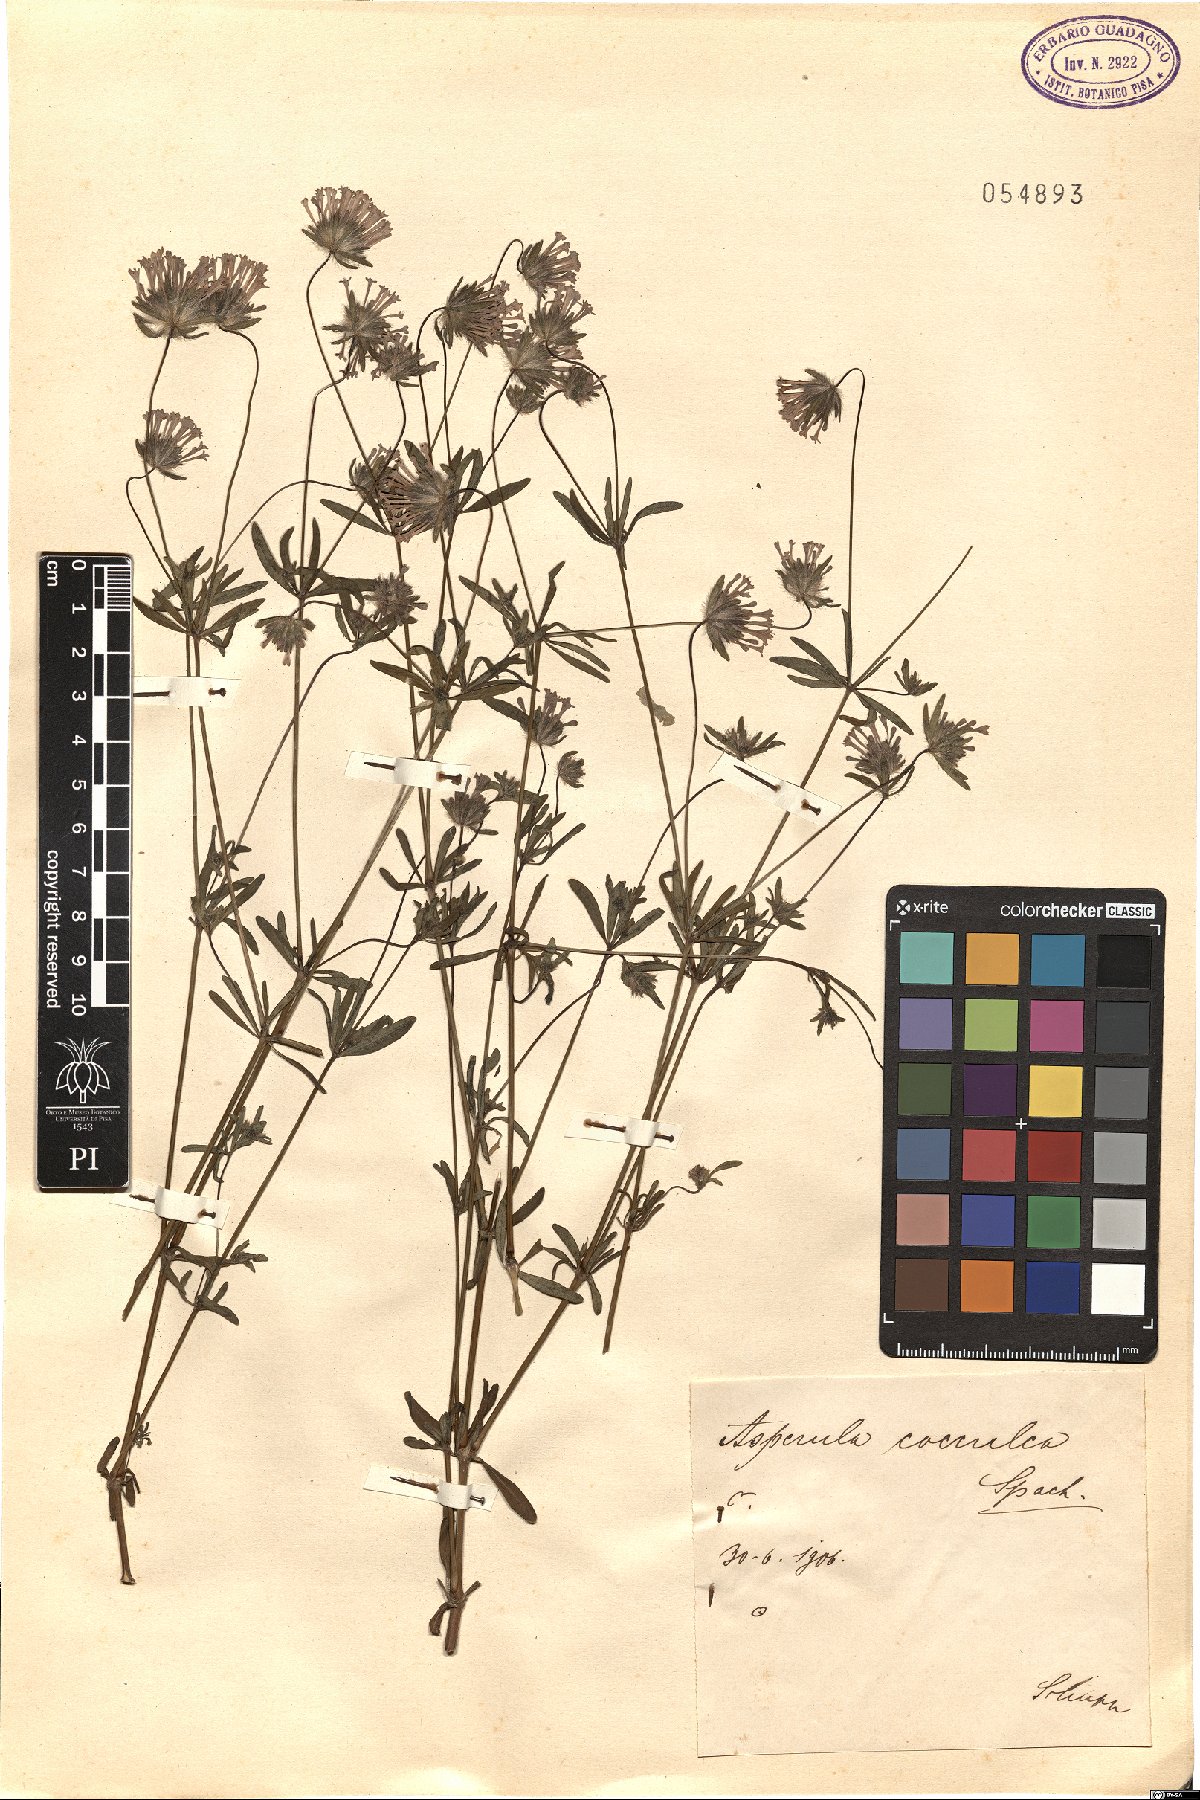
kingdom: Plantae
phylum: Tracheophyta
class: Magnoliopsida
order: Gentianales
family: Rubiaceae
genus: Asperula
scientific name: Asperula arvensis
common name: Blue woodruff
